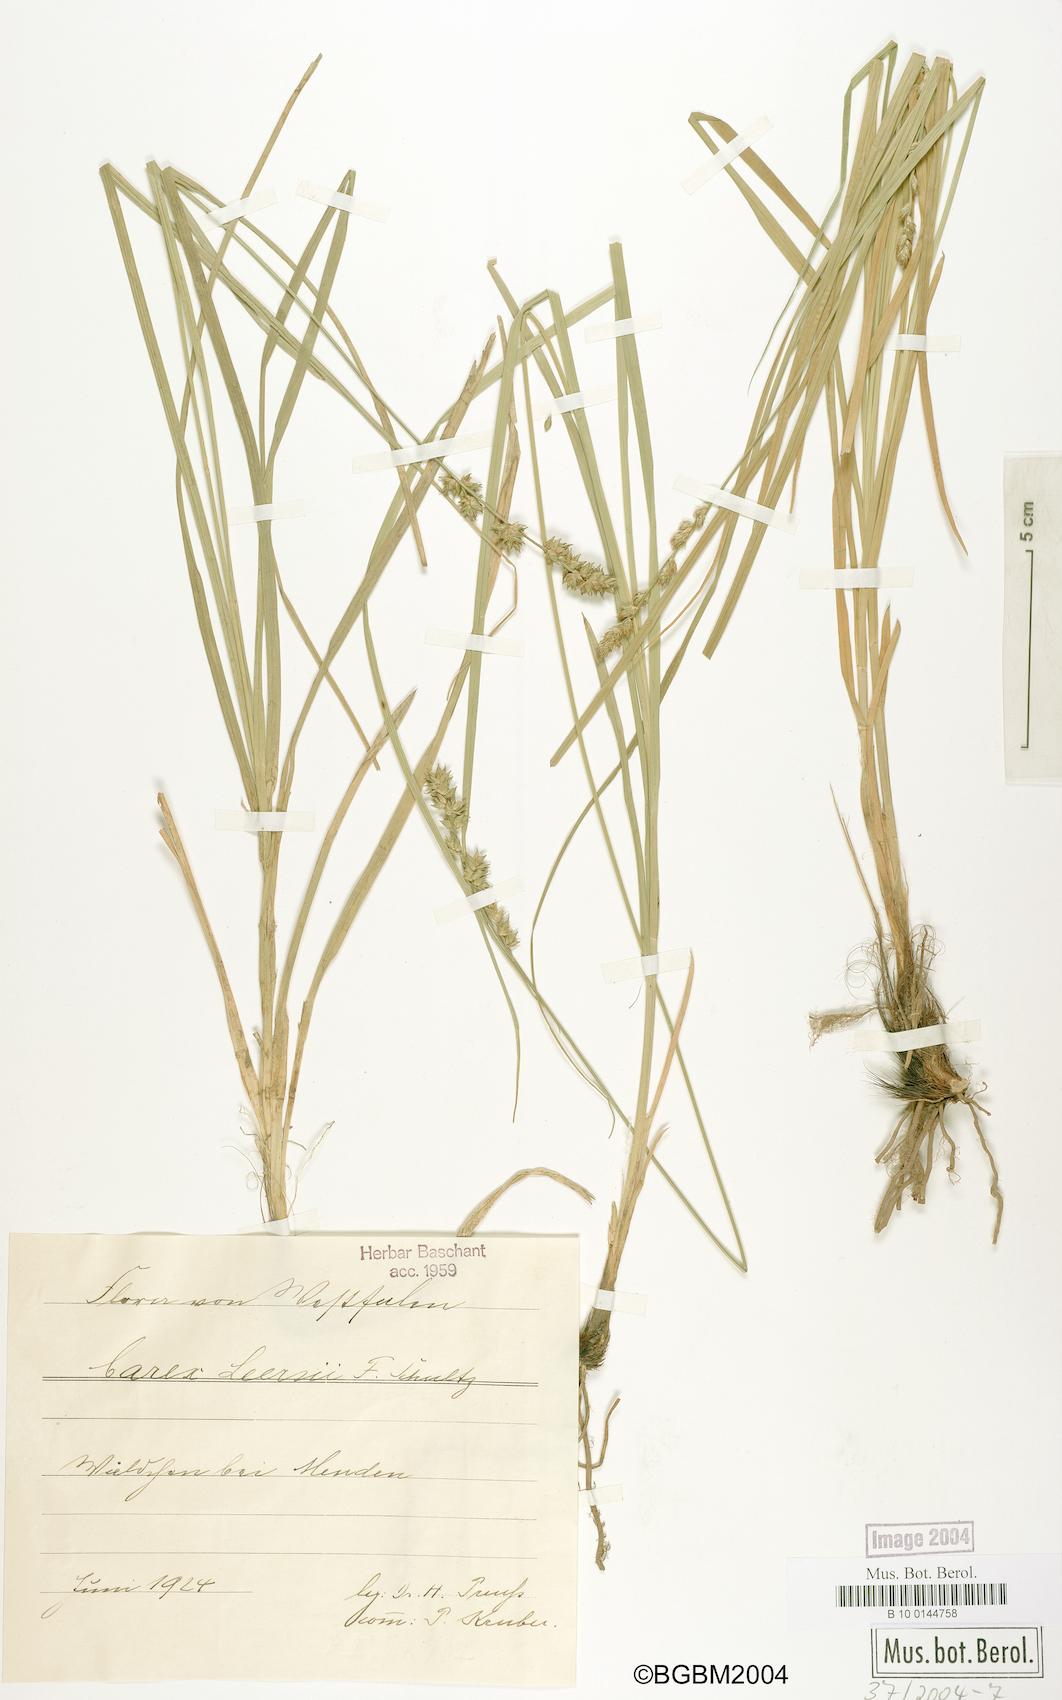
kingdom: Plantae
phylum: Tracheophyta
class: Liliopsida
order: Poales
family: Cyperaceae
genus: Carex
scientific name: Carex leersii
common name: Leers' sedge
